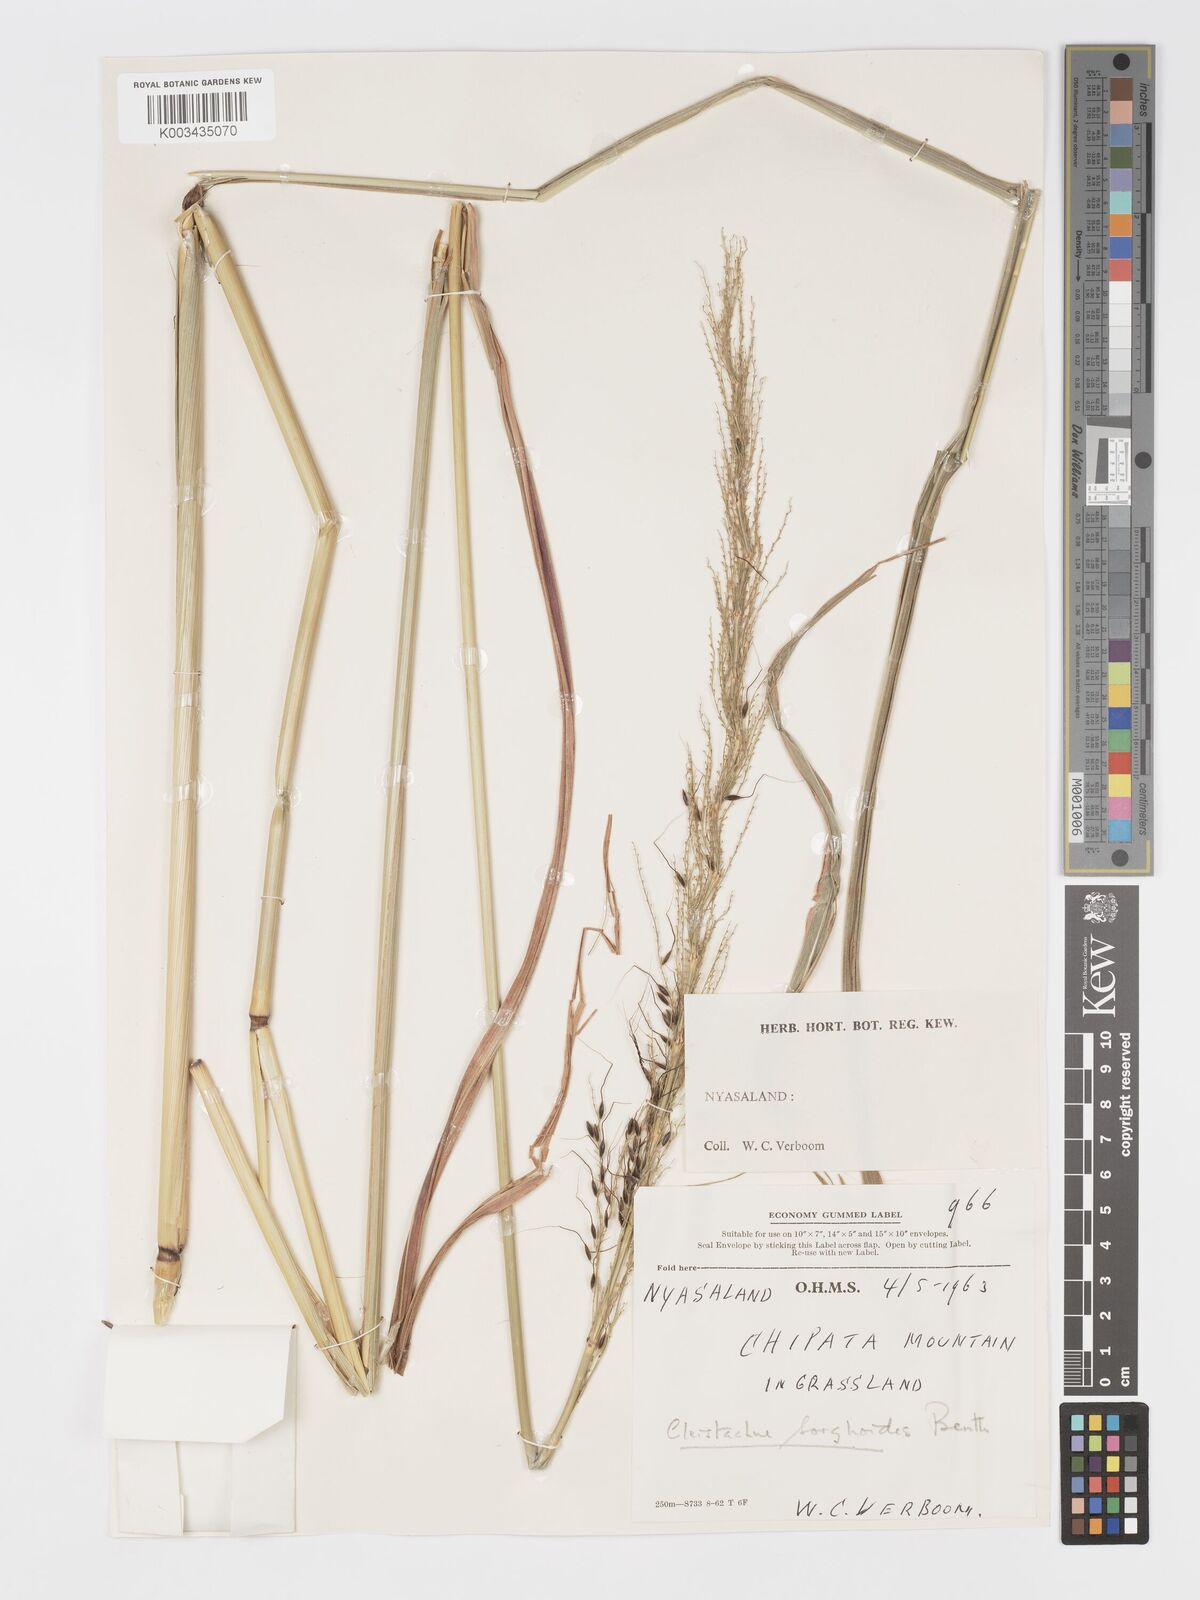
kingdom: Plantae
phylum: Tracheophyta
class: Liliopsida
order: Poales
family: Poaceae
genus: Cleistachne
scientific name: Cleistachne sorghoides
